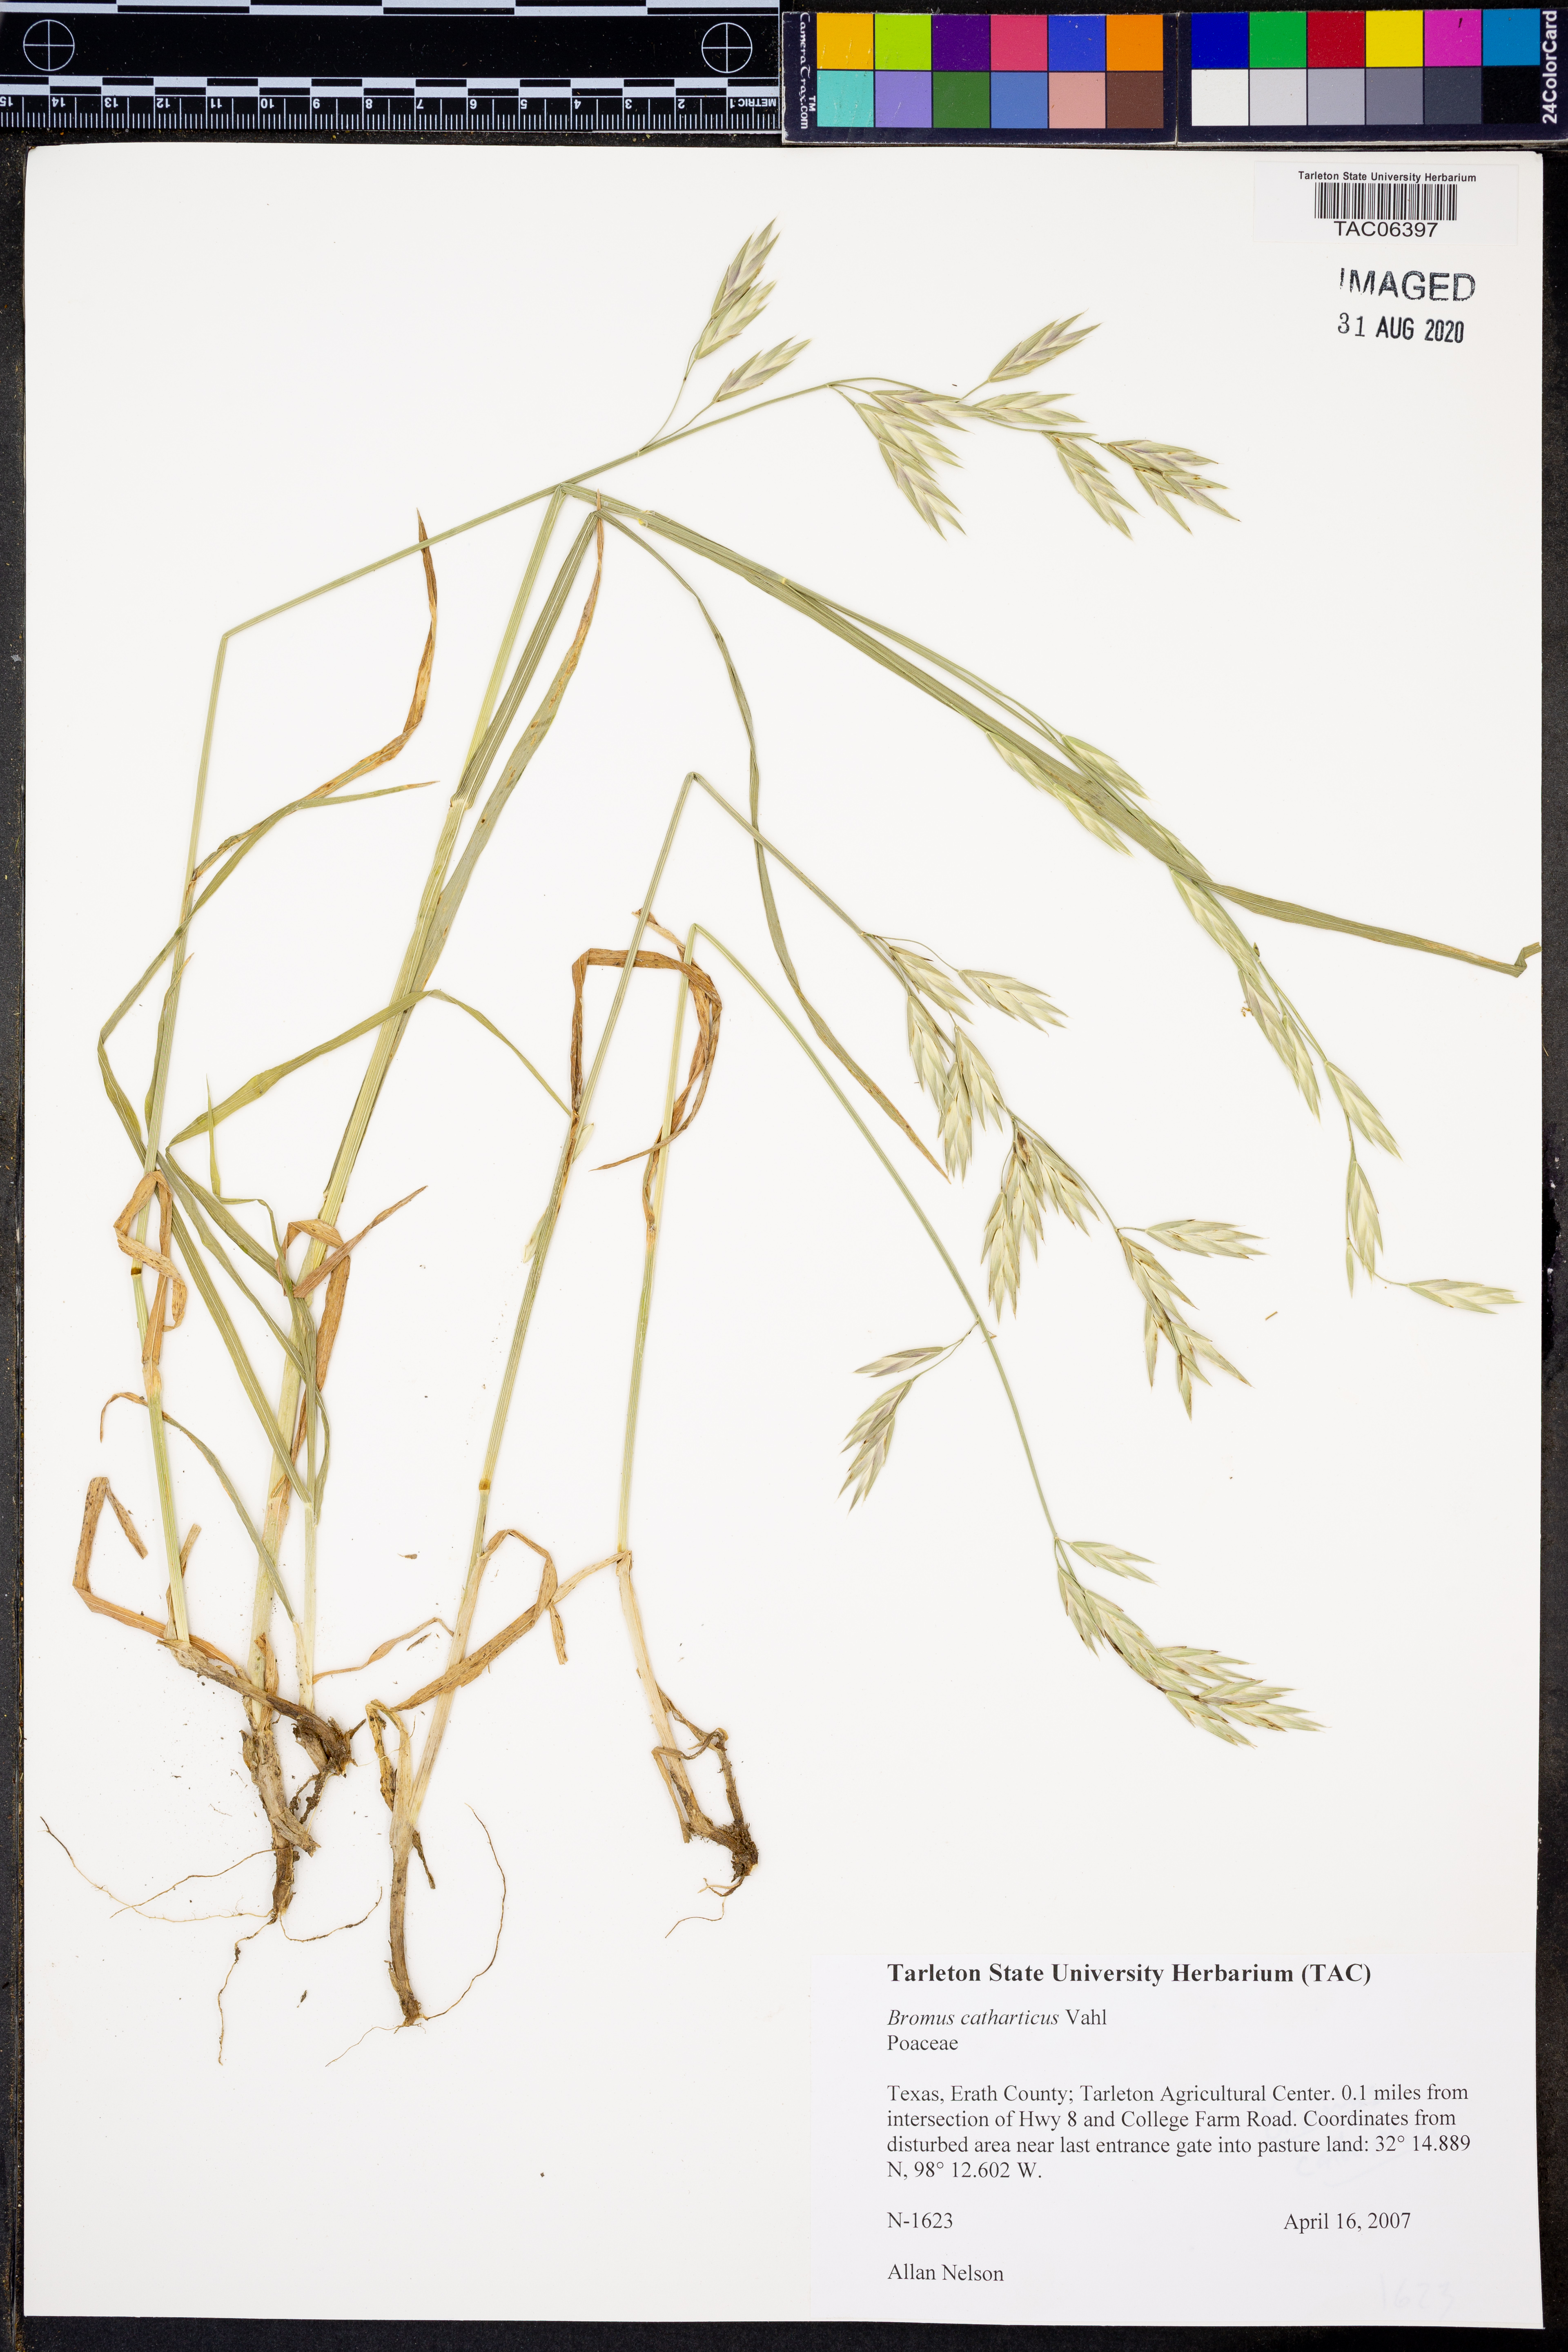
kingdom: Plantae
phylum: Tracheophyta
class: Liliopsida
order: Poales
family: Poaceae
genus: Bromus
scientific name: Bromus catharticus
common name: Rescuegrass
